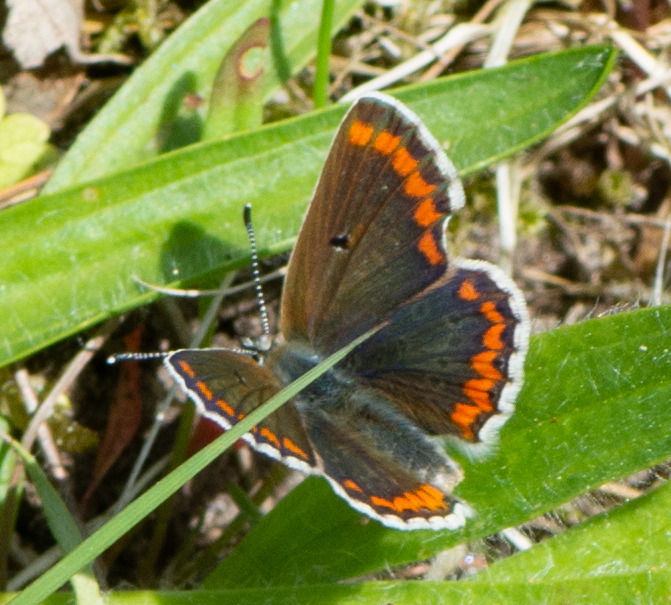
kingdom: Animalia
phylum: Arthropoda
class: Insecta
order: Lepidoptera
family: Lycaenidae
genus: Aricia
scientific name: Aricia agestis
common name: Rødplettet blåfugl
